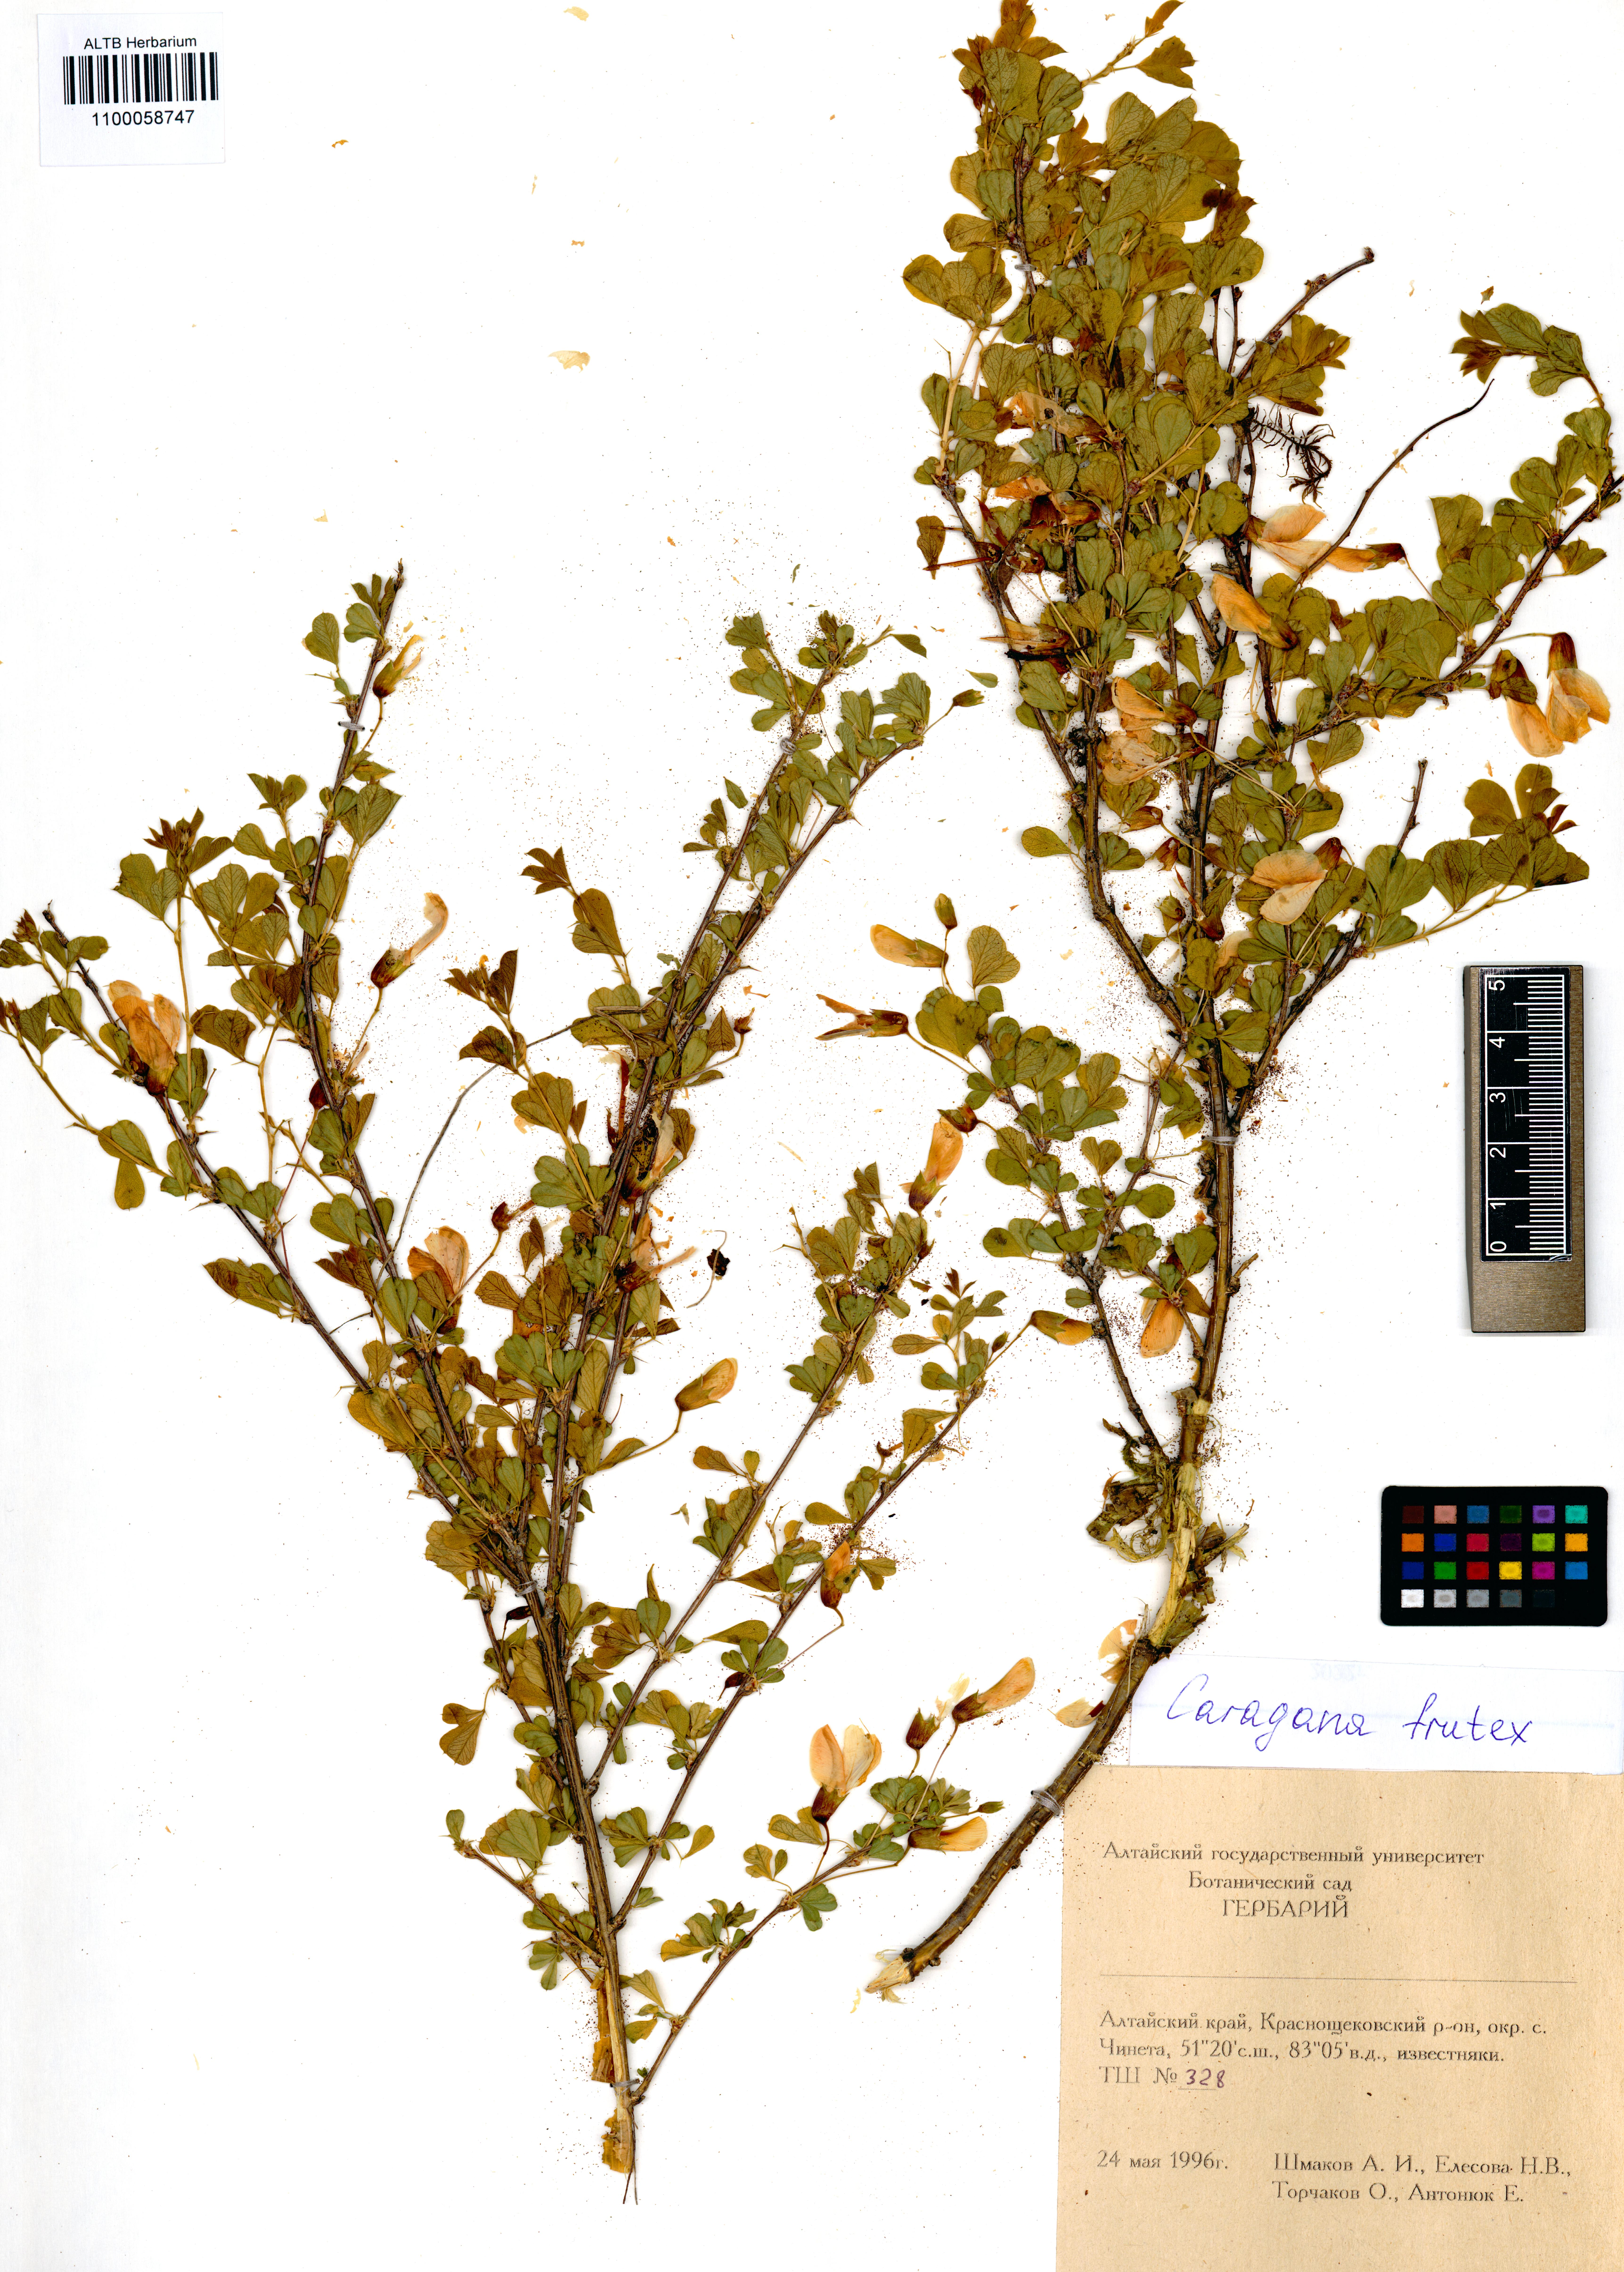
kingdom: Plantae
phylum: Tracheophyta
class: Magnoliopsida
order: Fabales
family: Fabaceae
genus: Caragana
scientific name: Caragana frutex
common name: Russian peashrub
